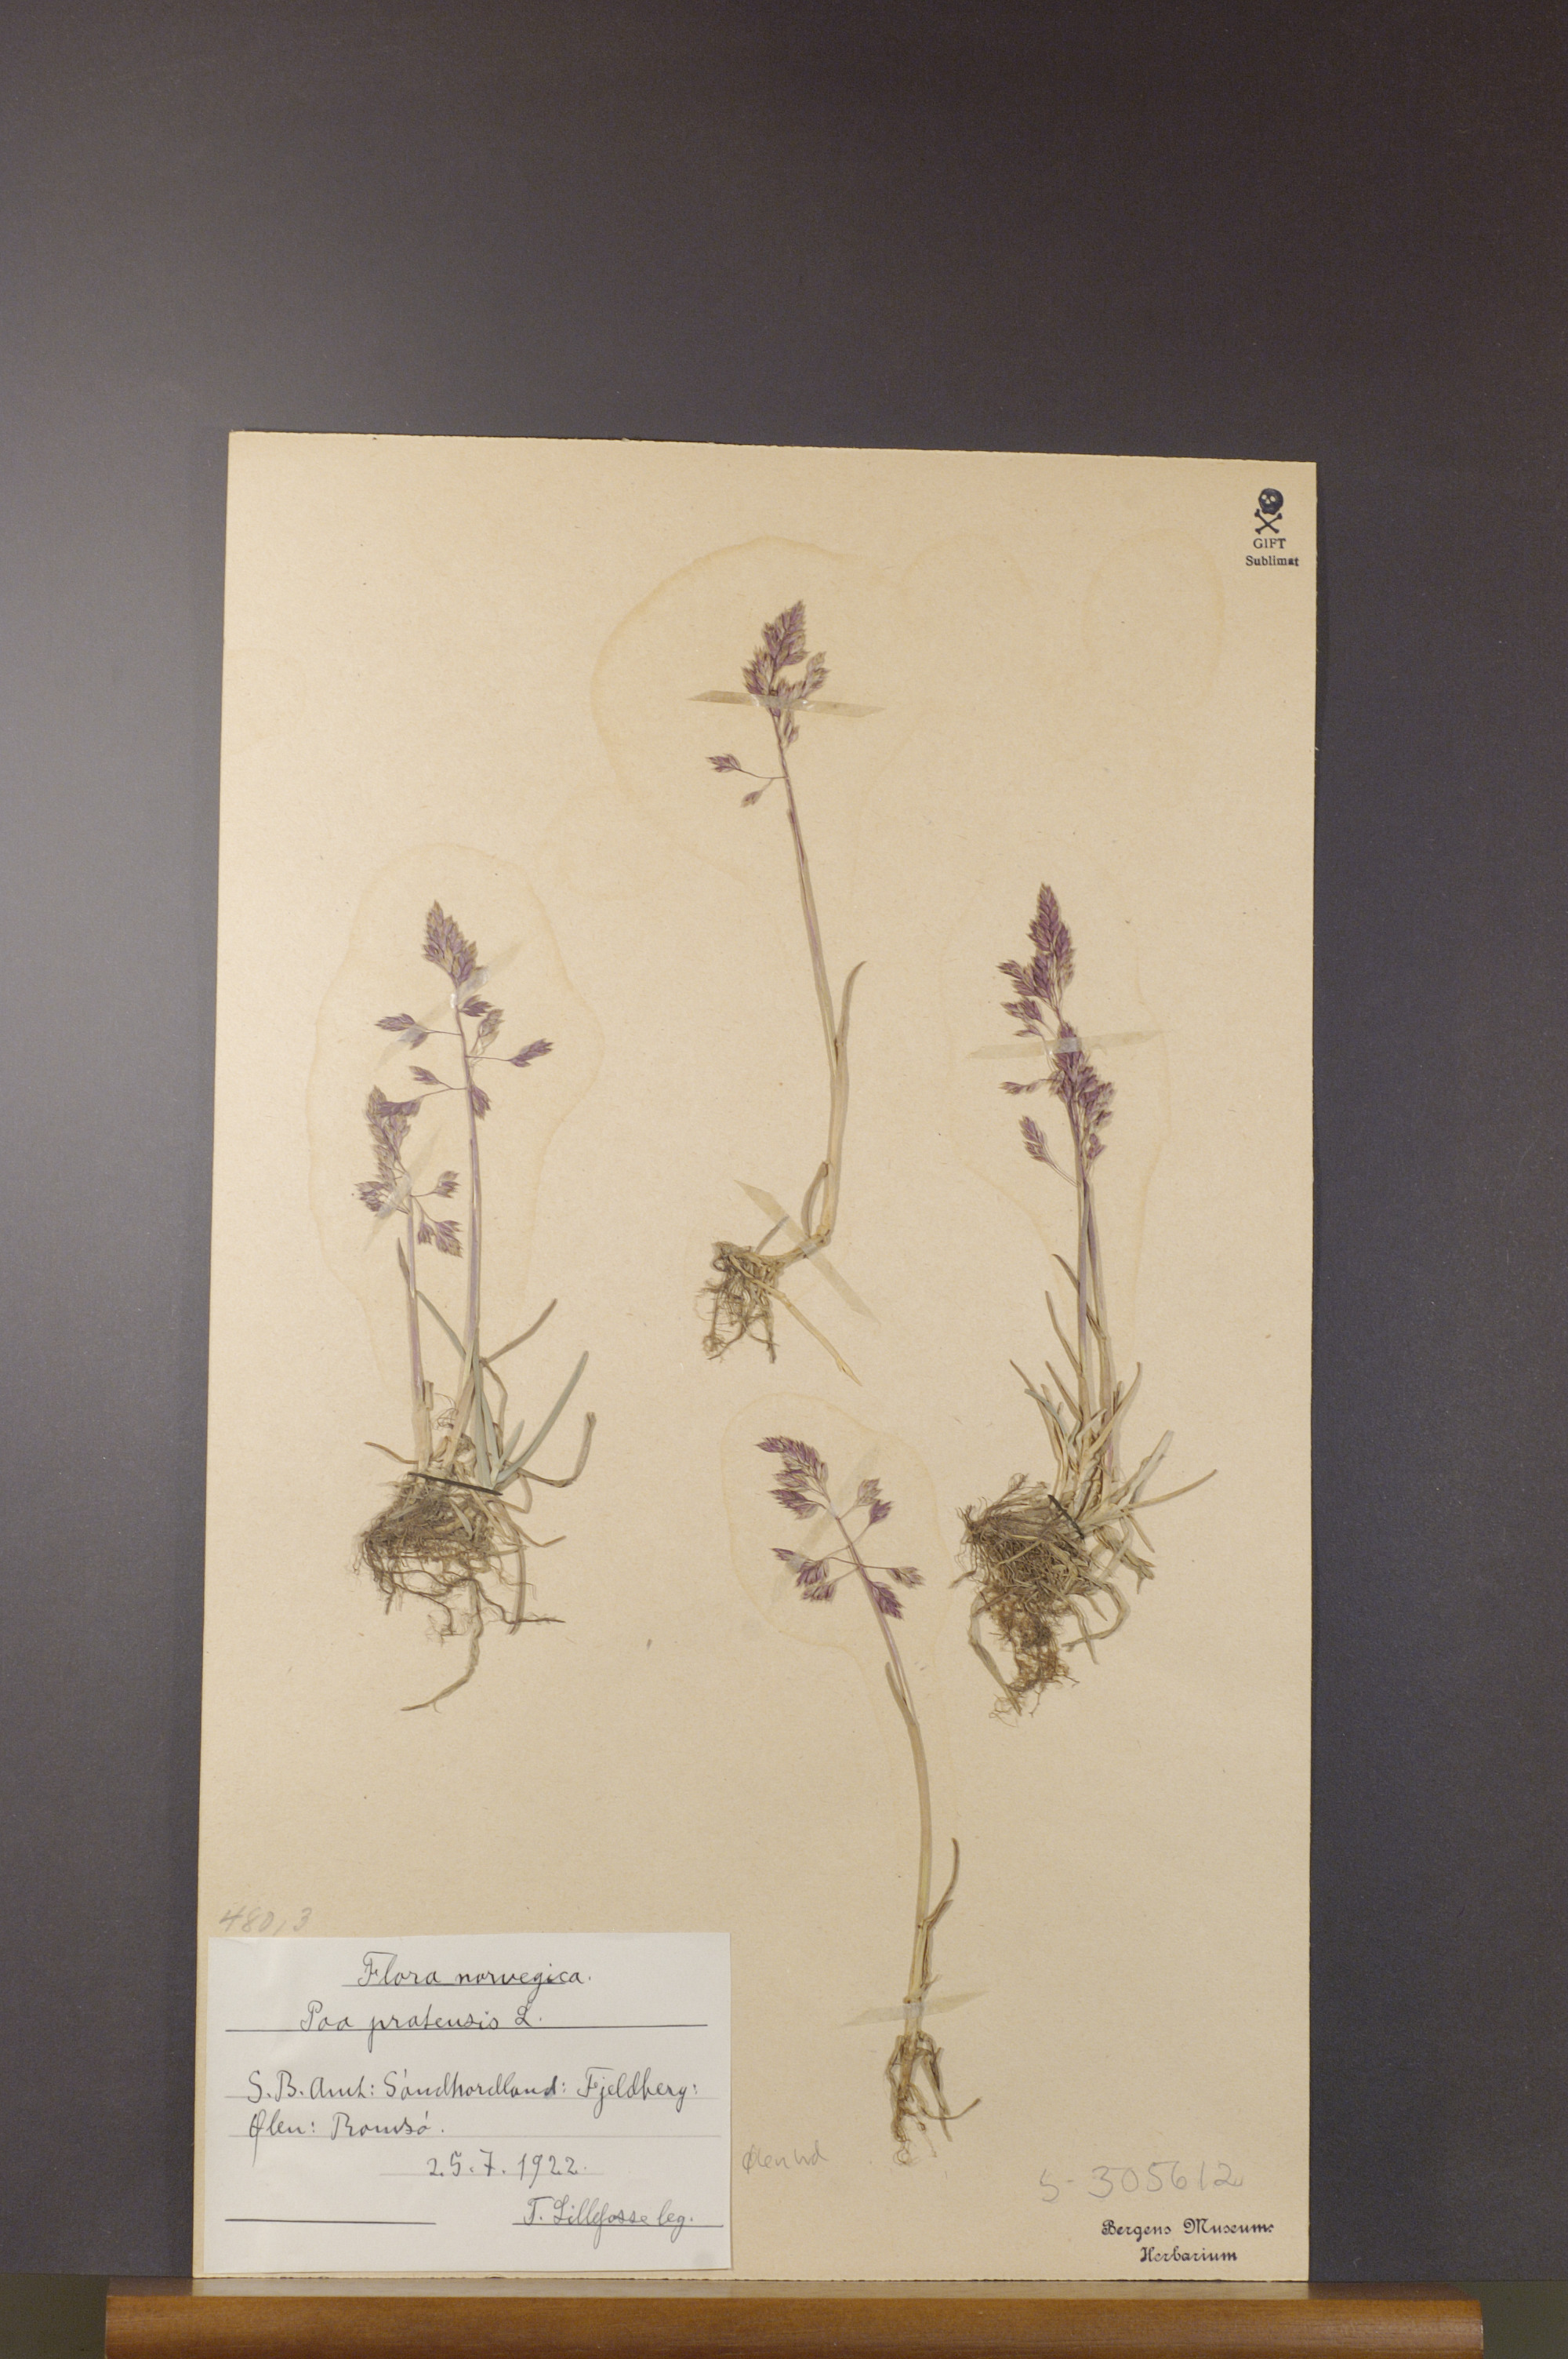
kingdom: Plantae
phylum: Tracheophyta
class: Liliopsida
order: Poales
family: Poaceae
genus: Poa
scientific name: Poa pratensis
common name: Kentucky bluegrass
